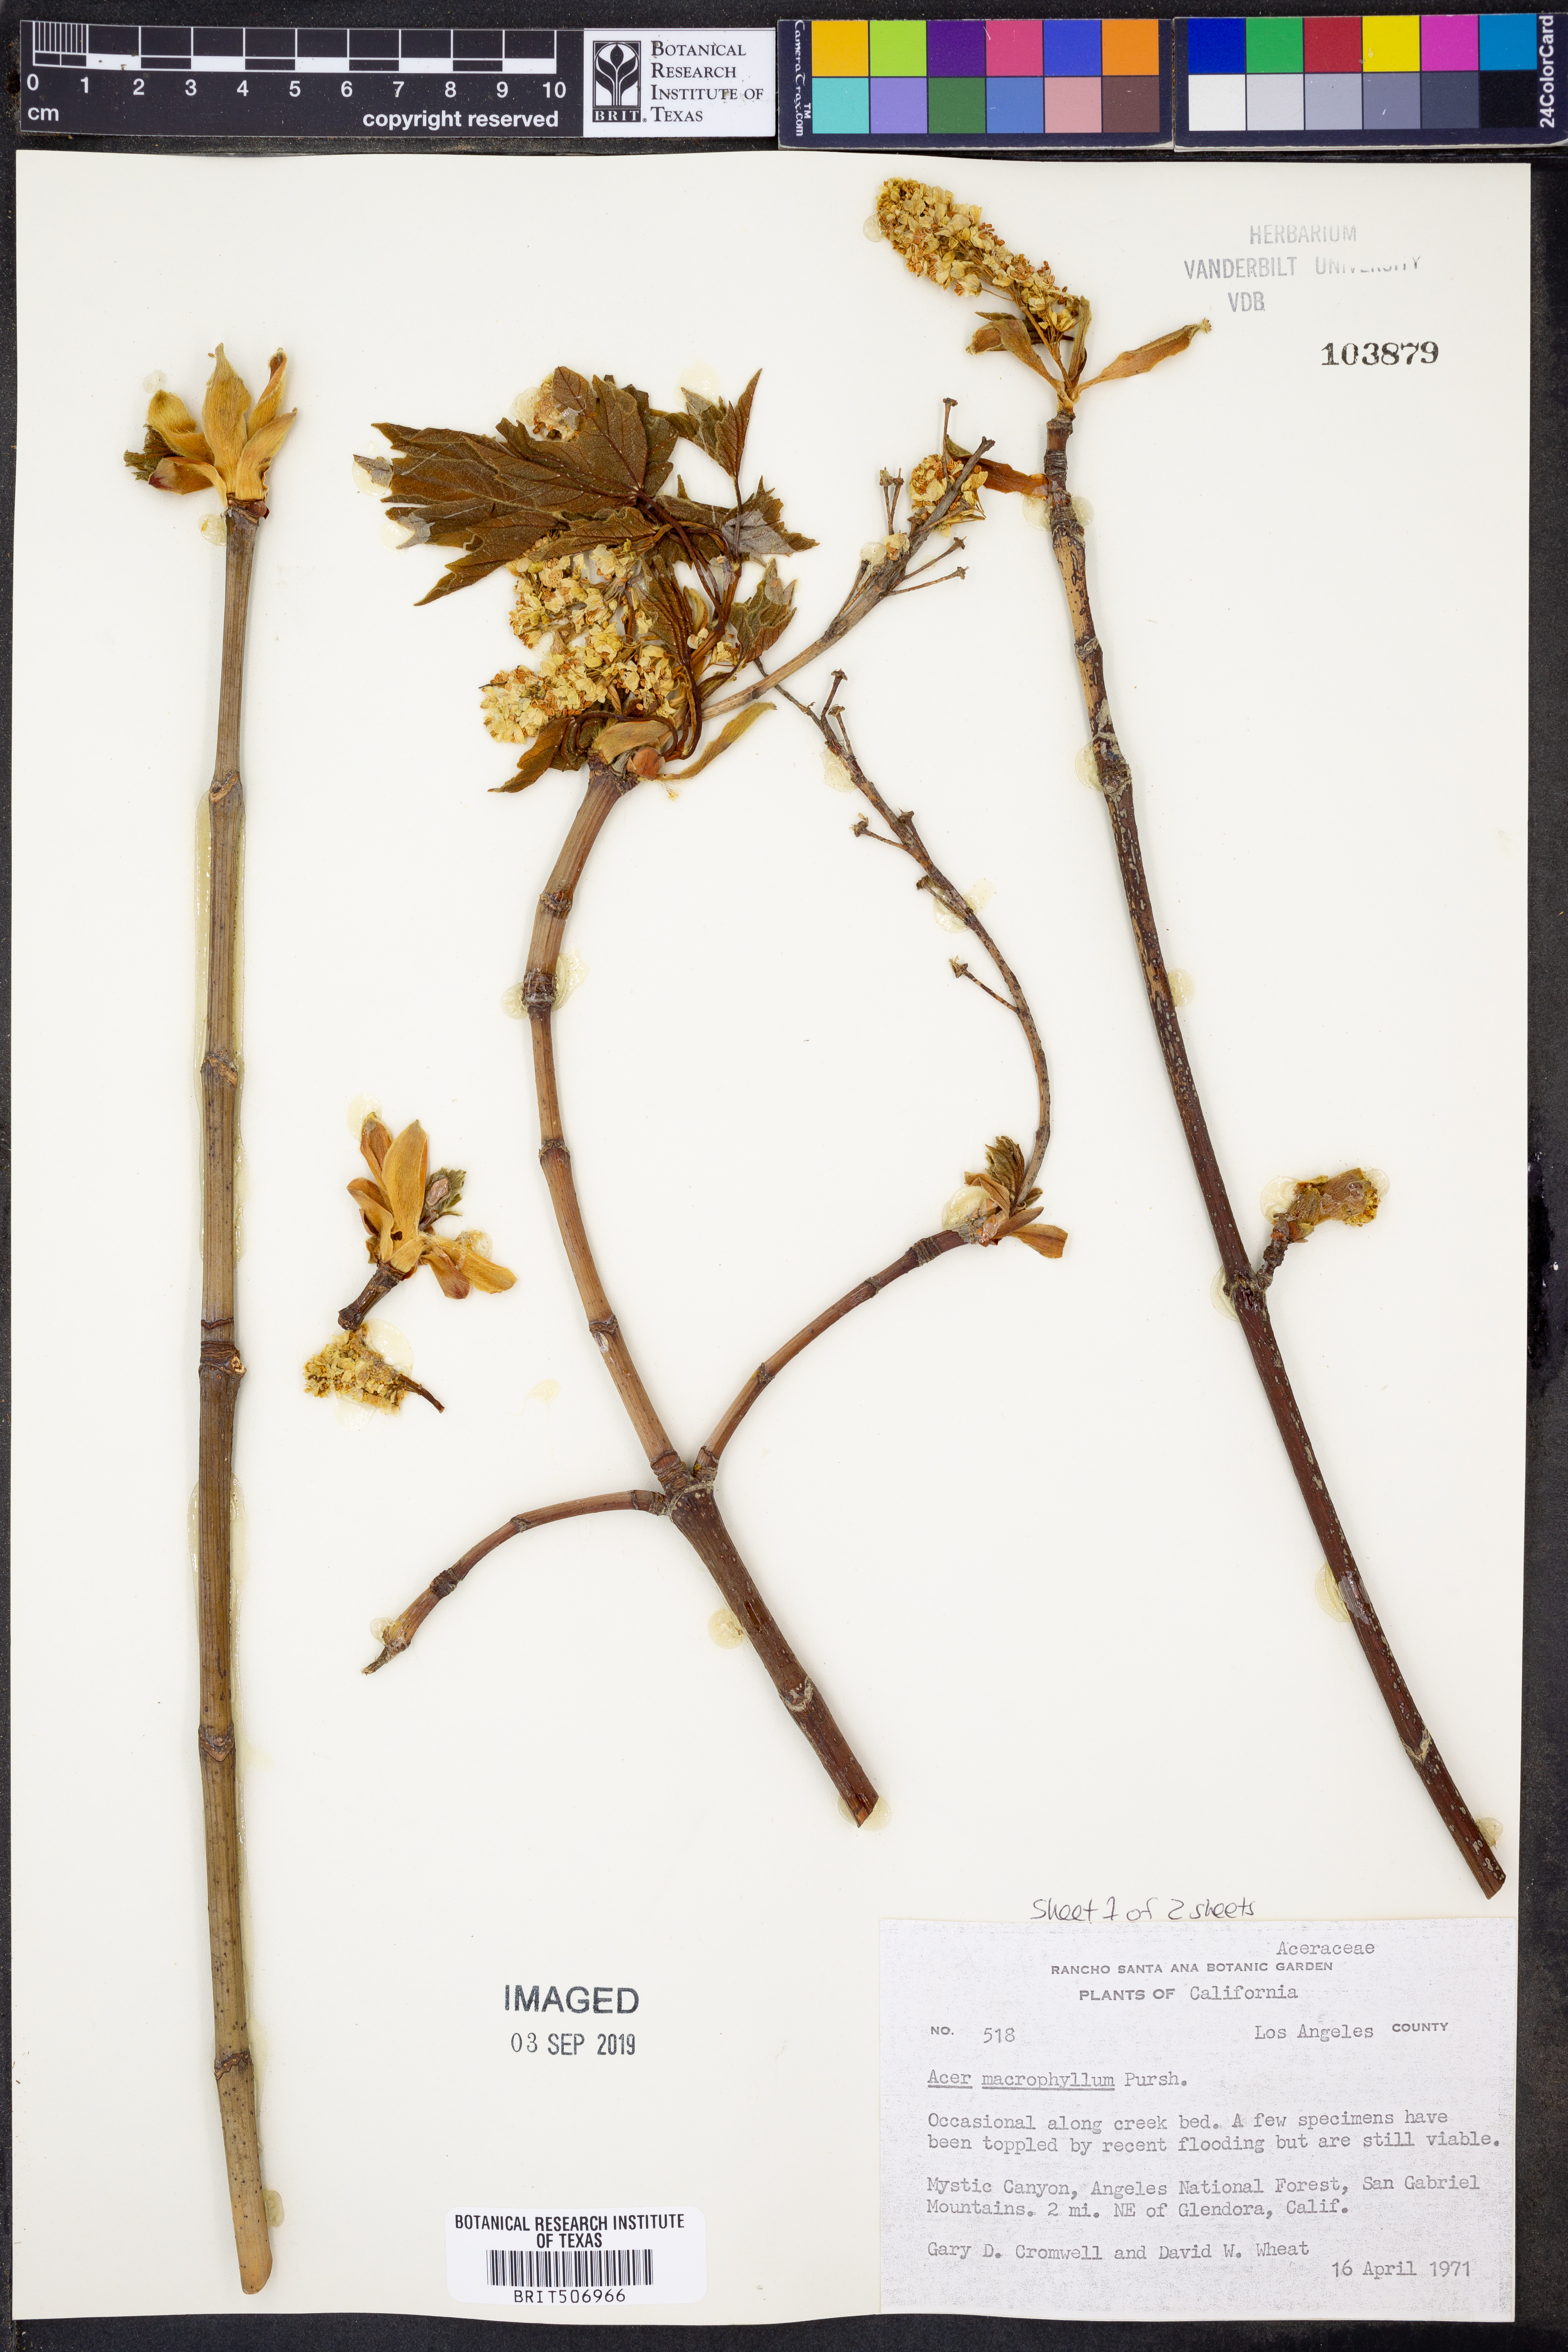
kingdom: Plantae
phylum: Tracheophyta
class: Magnoliopsida
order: Sapindales
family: Sapindaceae
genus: Acer
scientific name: Acer macrophyllum
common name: Oregon maple
